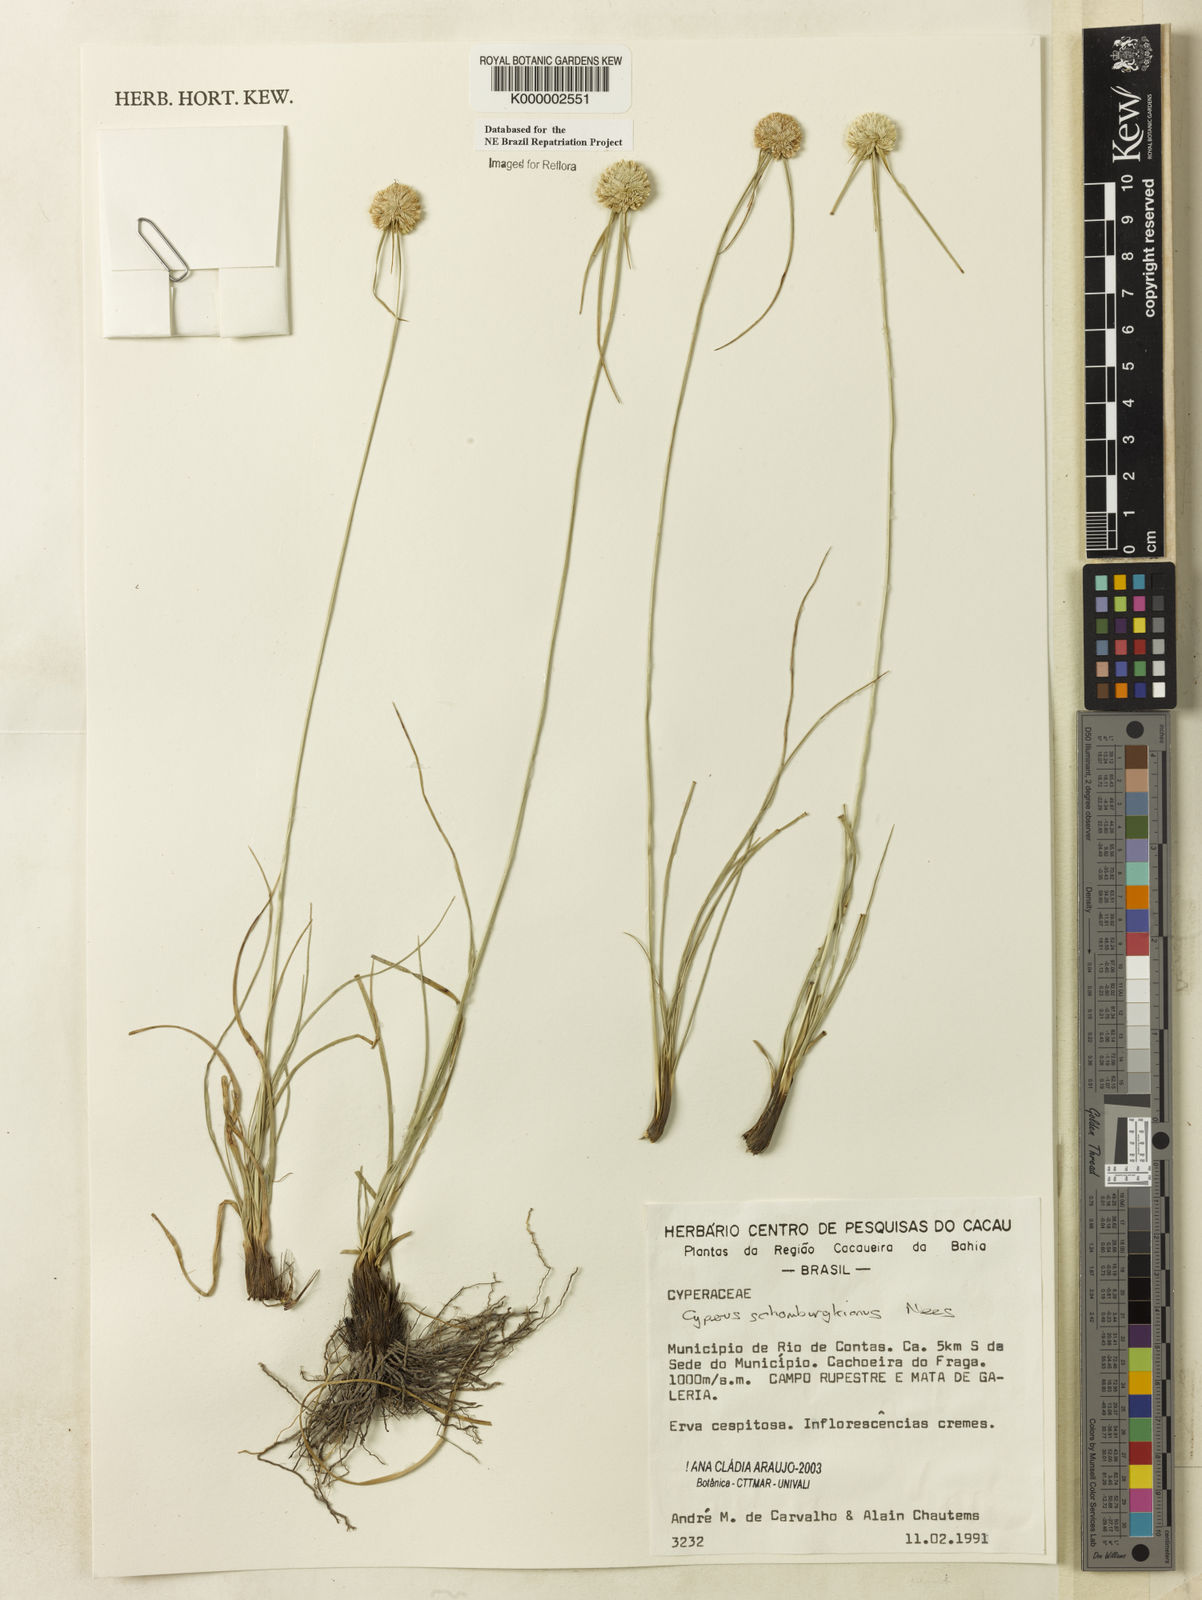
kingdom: Plantae
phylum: Tracheophyta
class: Liliopsida
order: Poales
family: Cyperaceae
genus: Cyperus
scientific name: Cyperus schomburgkianus
